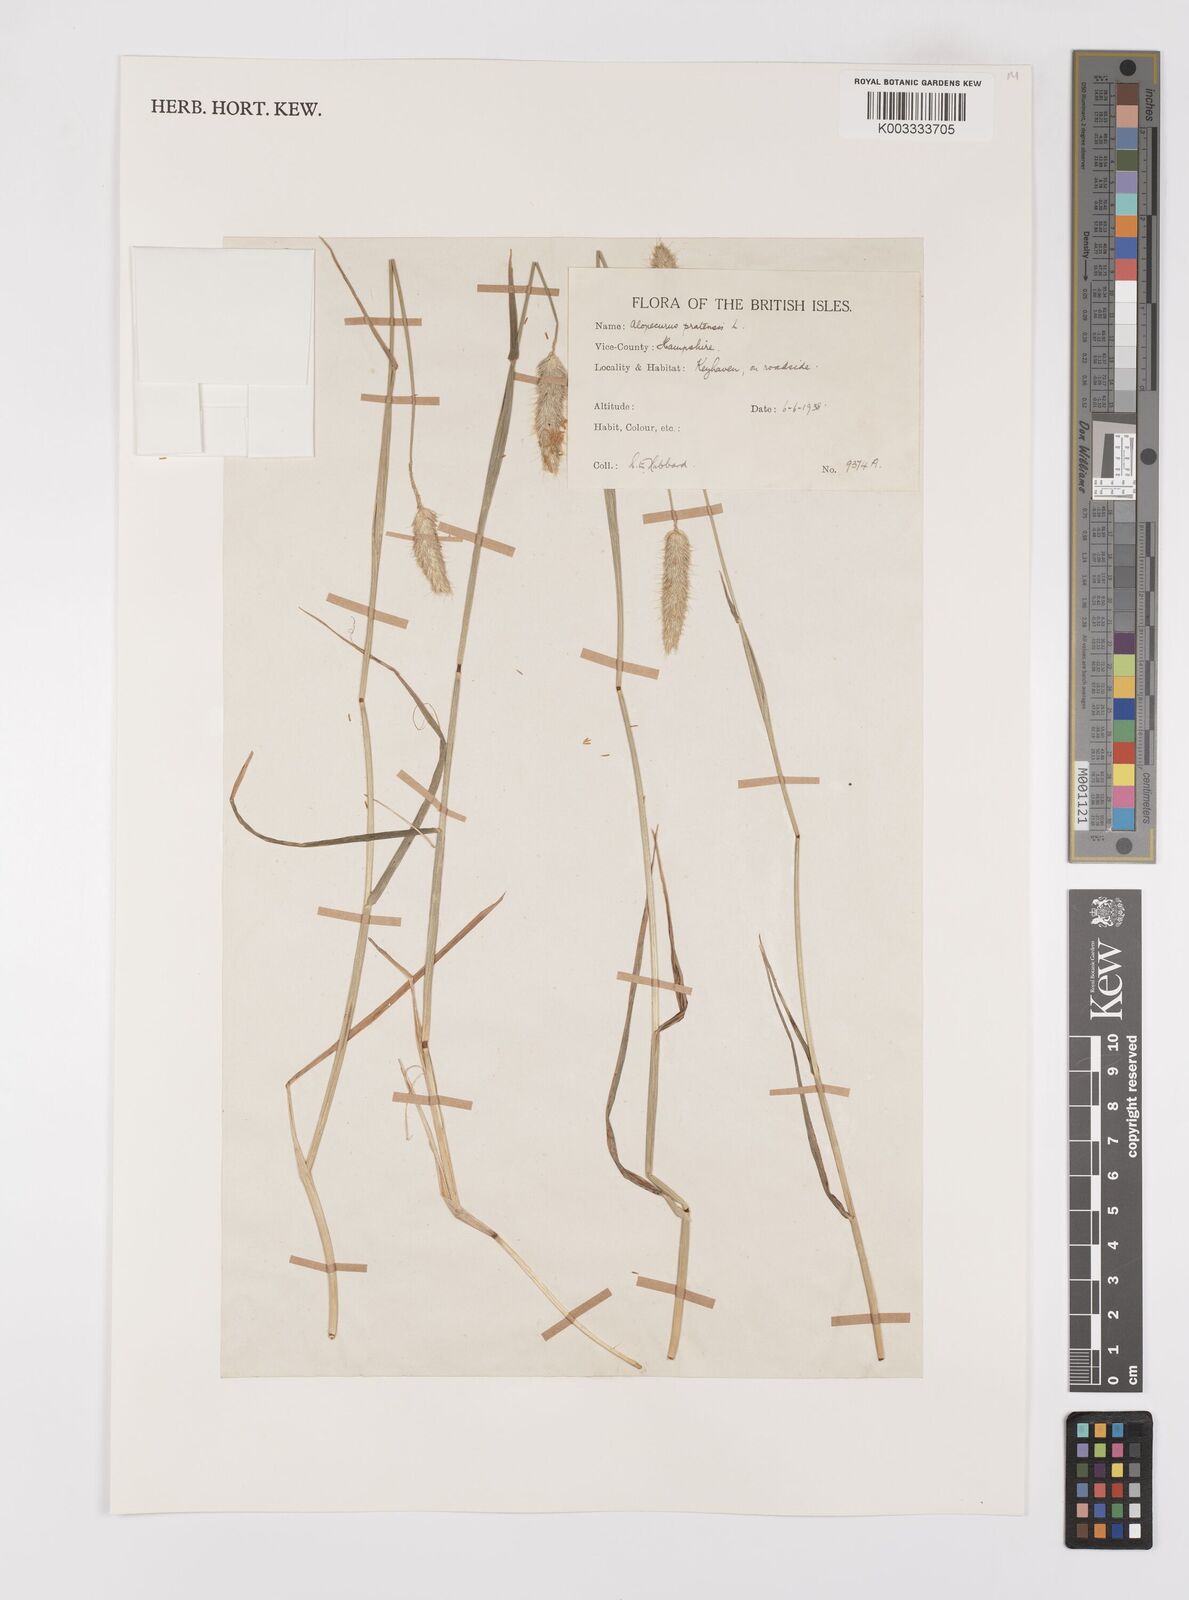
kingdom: Plantae
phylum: Tracheophyta
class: Liliopsida
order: Poales
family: Poaceae
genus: Alopecurus
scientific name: Alopecurus pratensis
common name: Meadow foxtail
